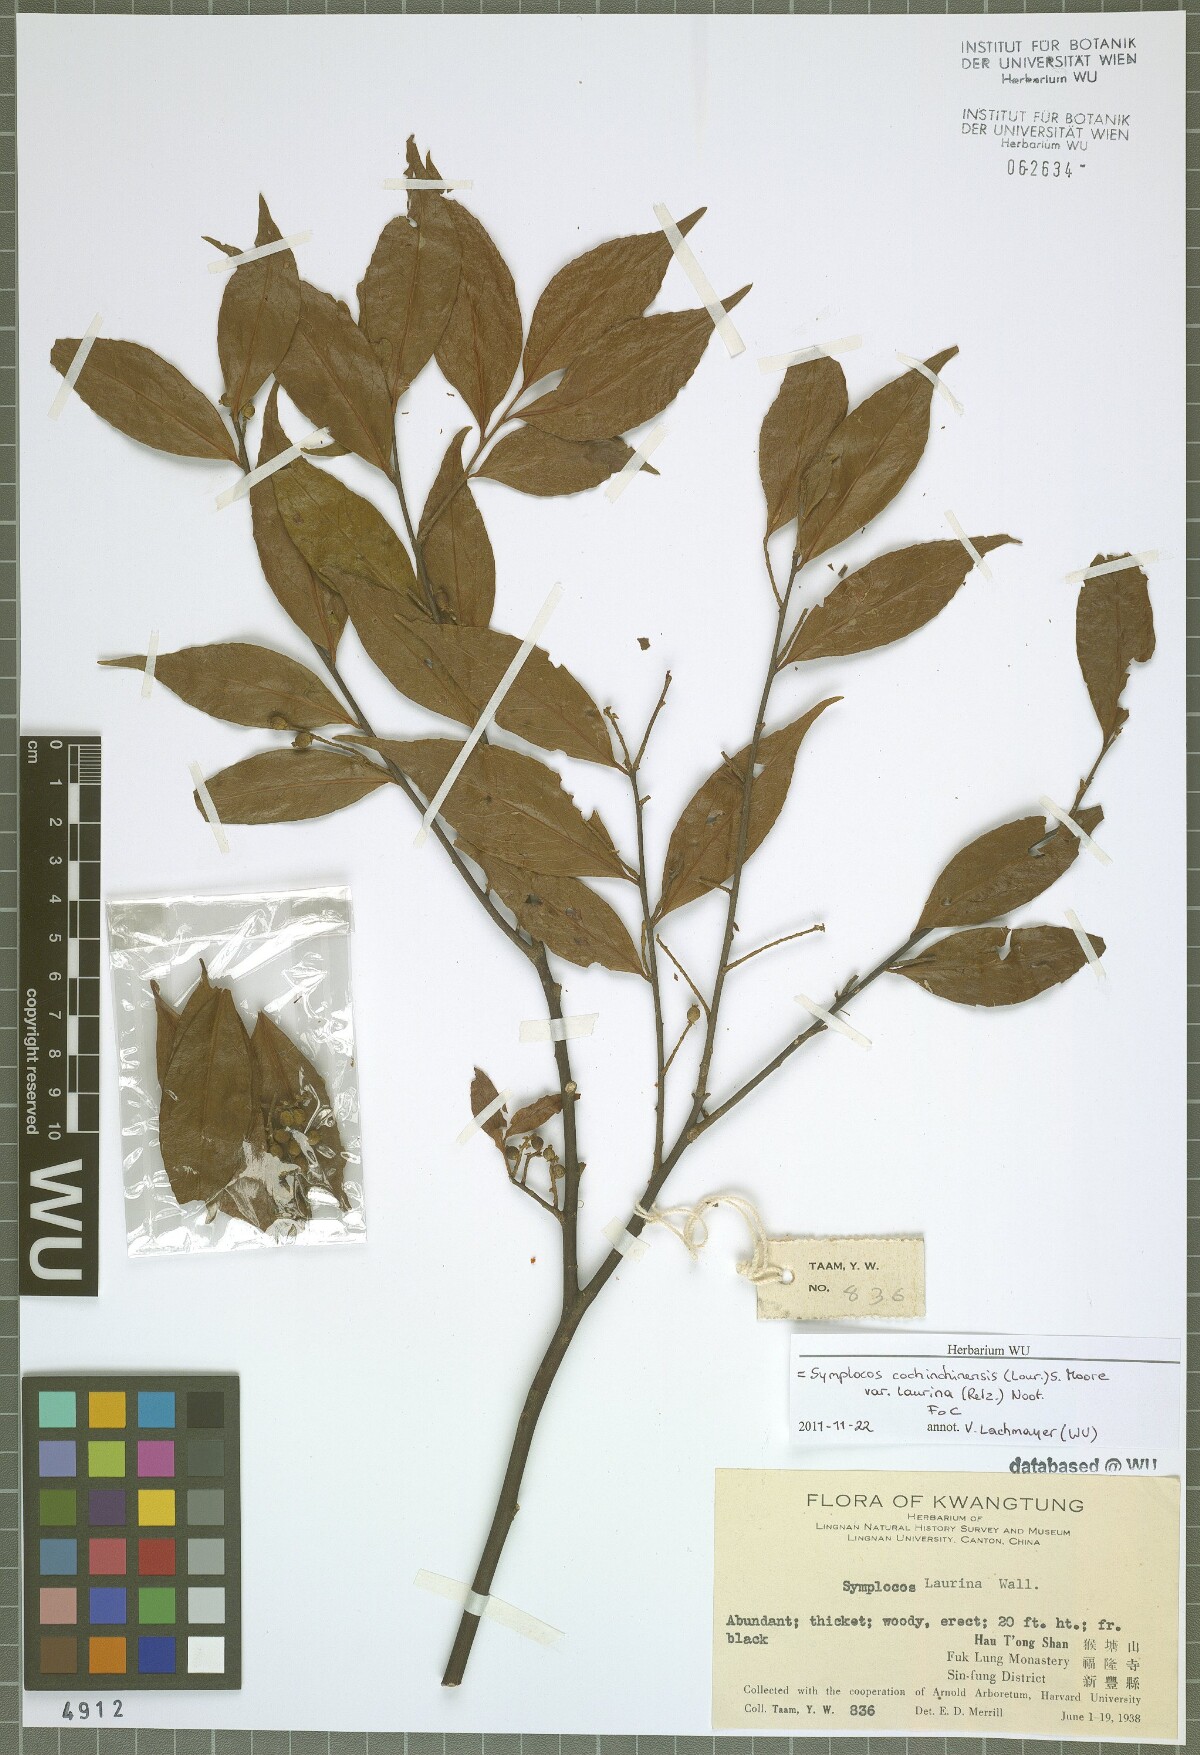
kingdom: Plantae
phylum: Tracheophyta
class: Magnoliopsida
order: Ericales
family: Symplocaceae
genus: Symplocos
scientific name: Symplocos acuminata
